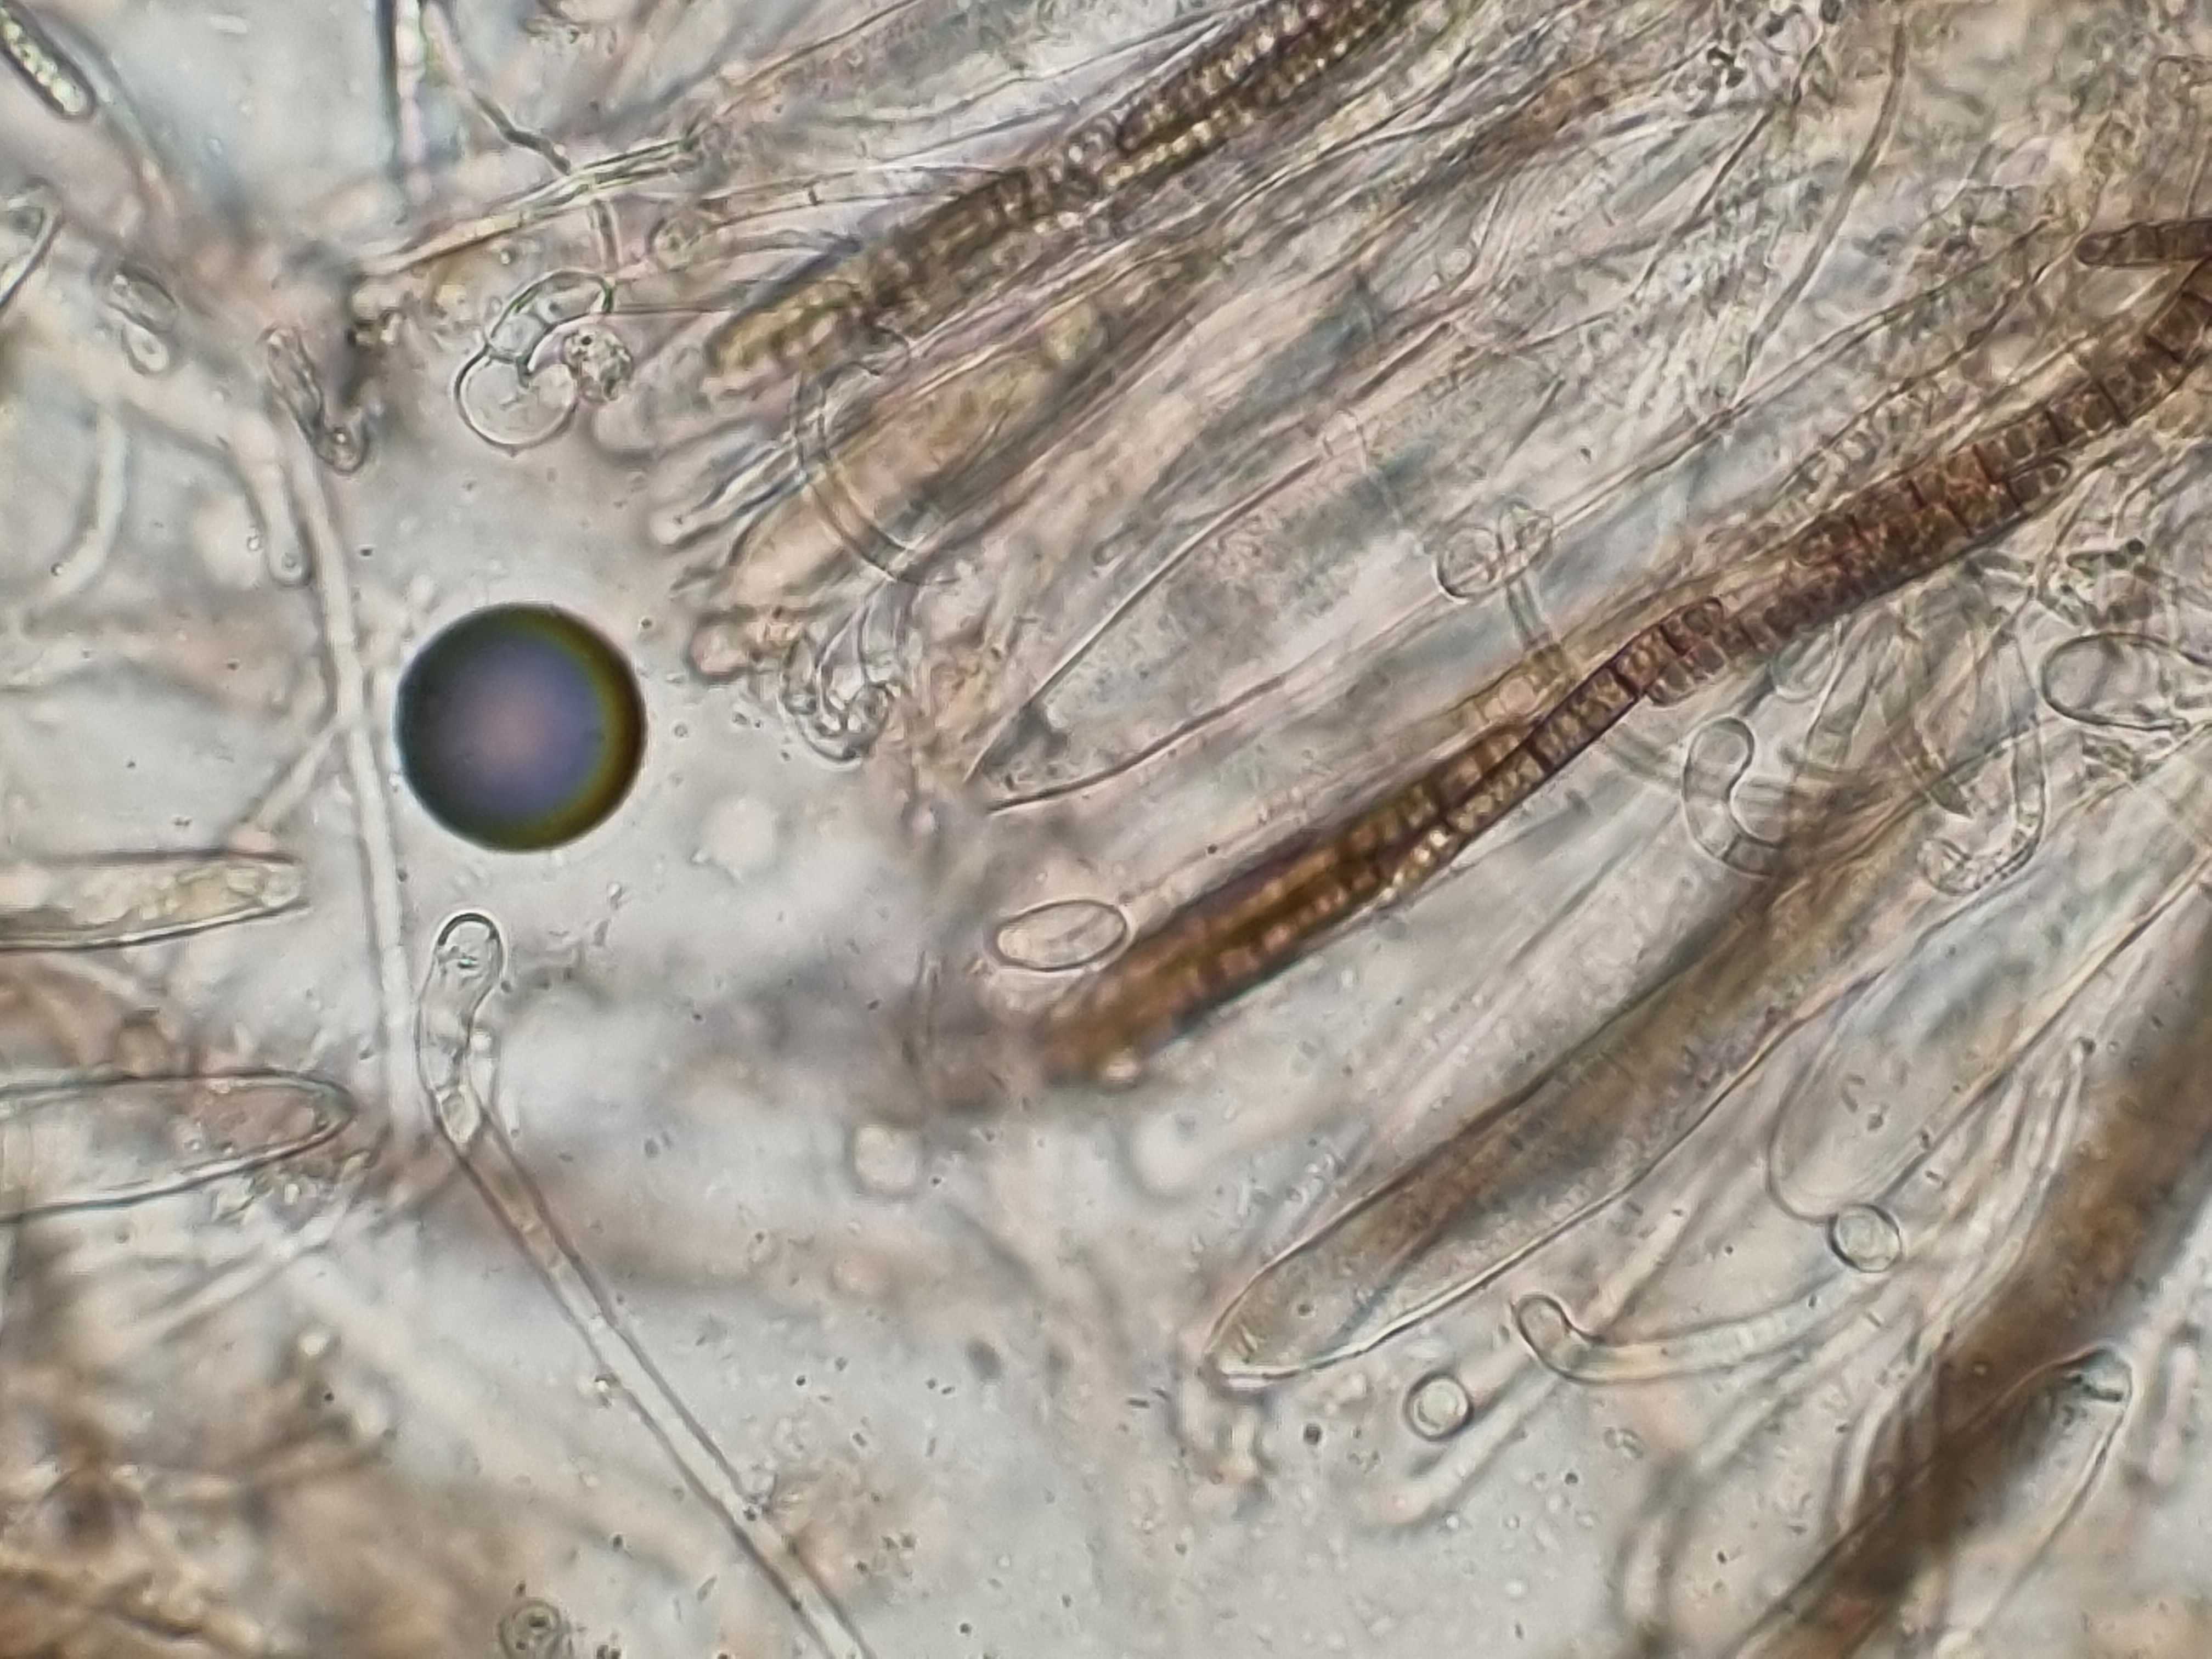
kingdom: Fungi
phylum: Ascomycota
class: Geoglossomycetes
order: Geoglossales
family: Geoglossaceae
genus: Hemileucoglossum
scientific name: Hemileucoglossum elongatum
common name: småsporet jordtunge
